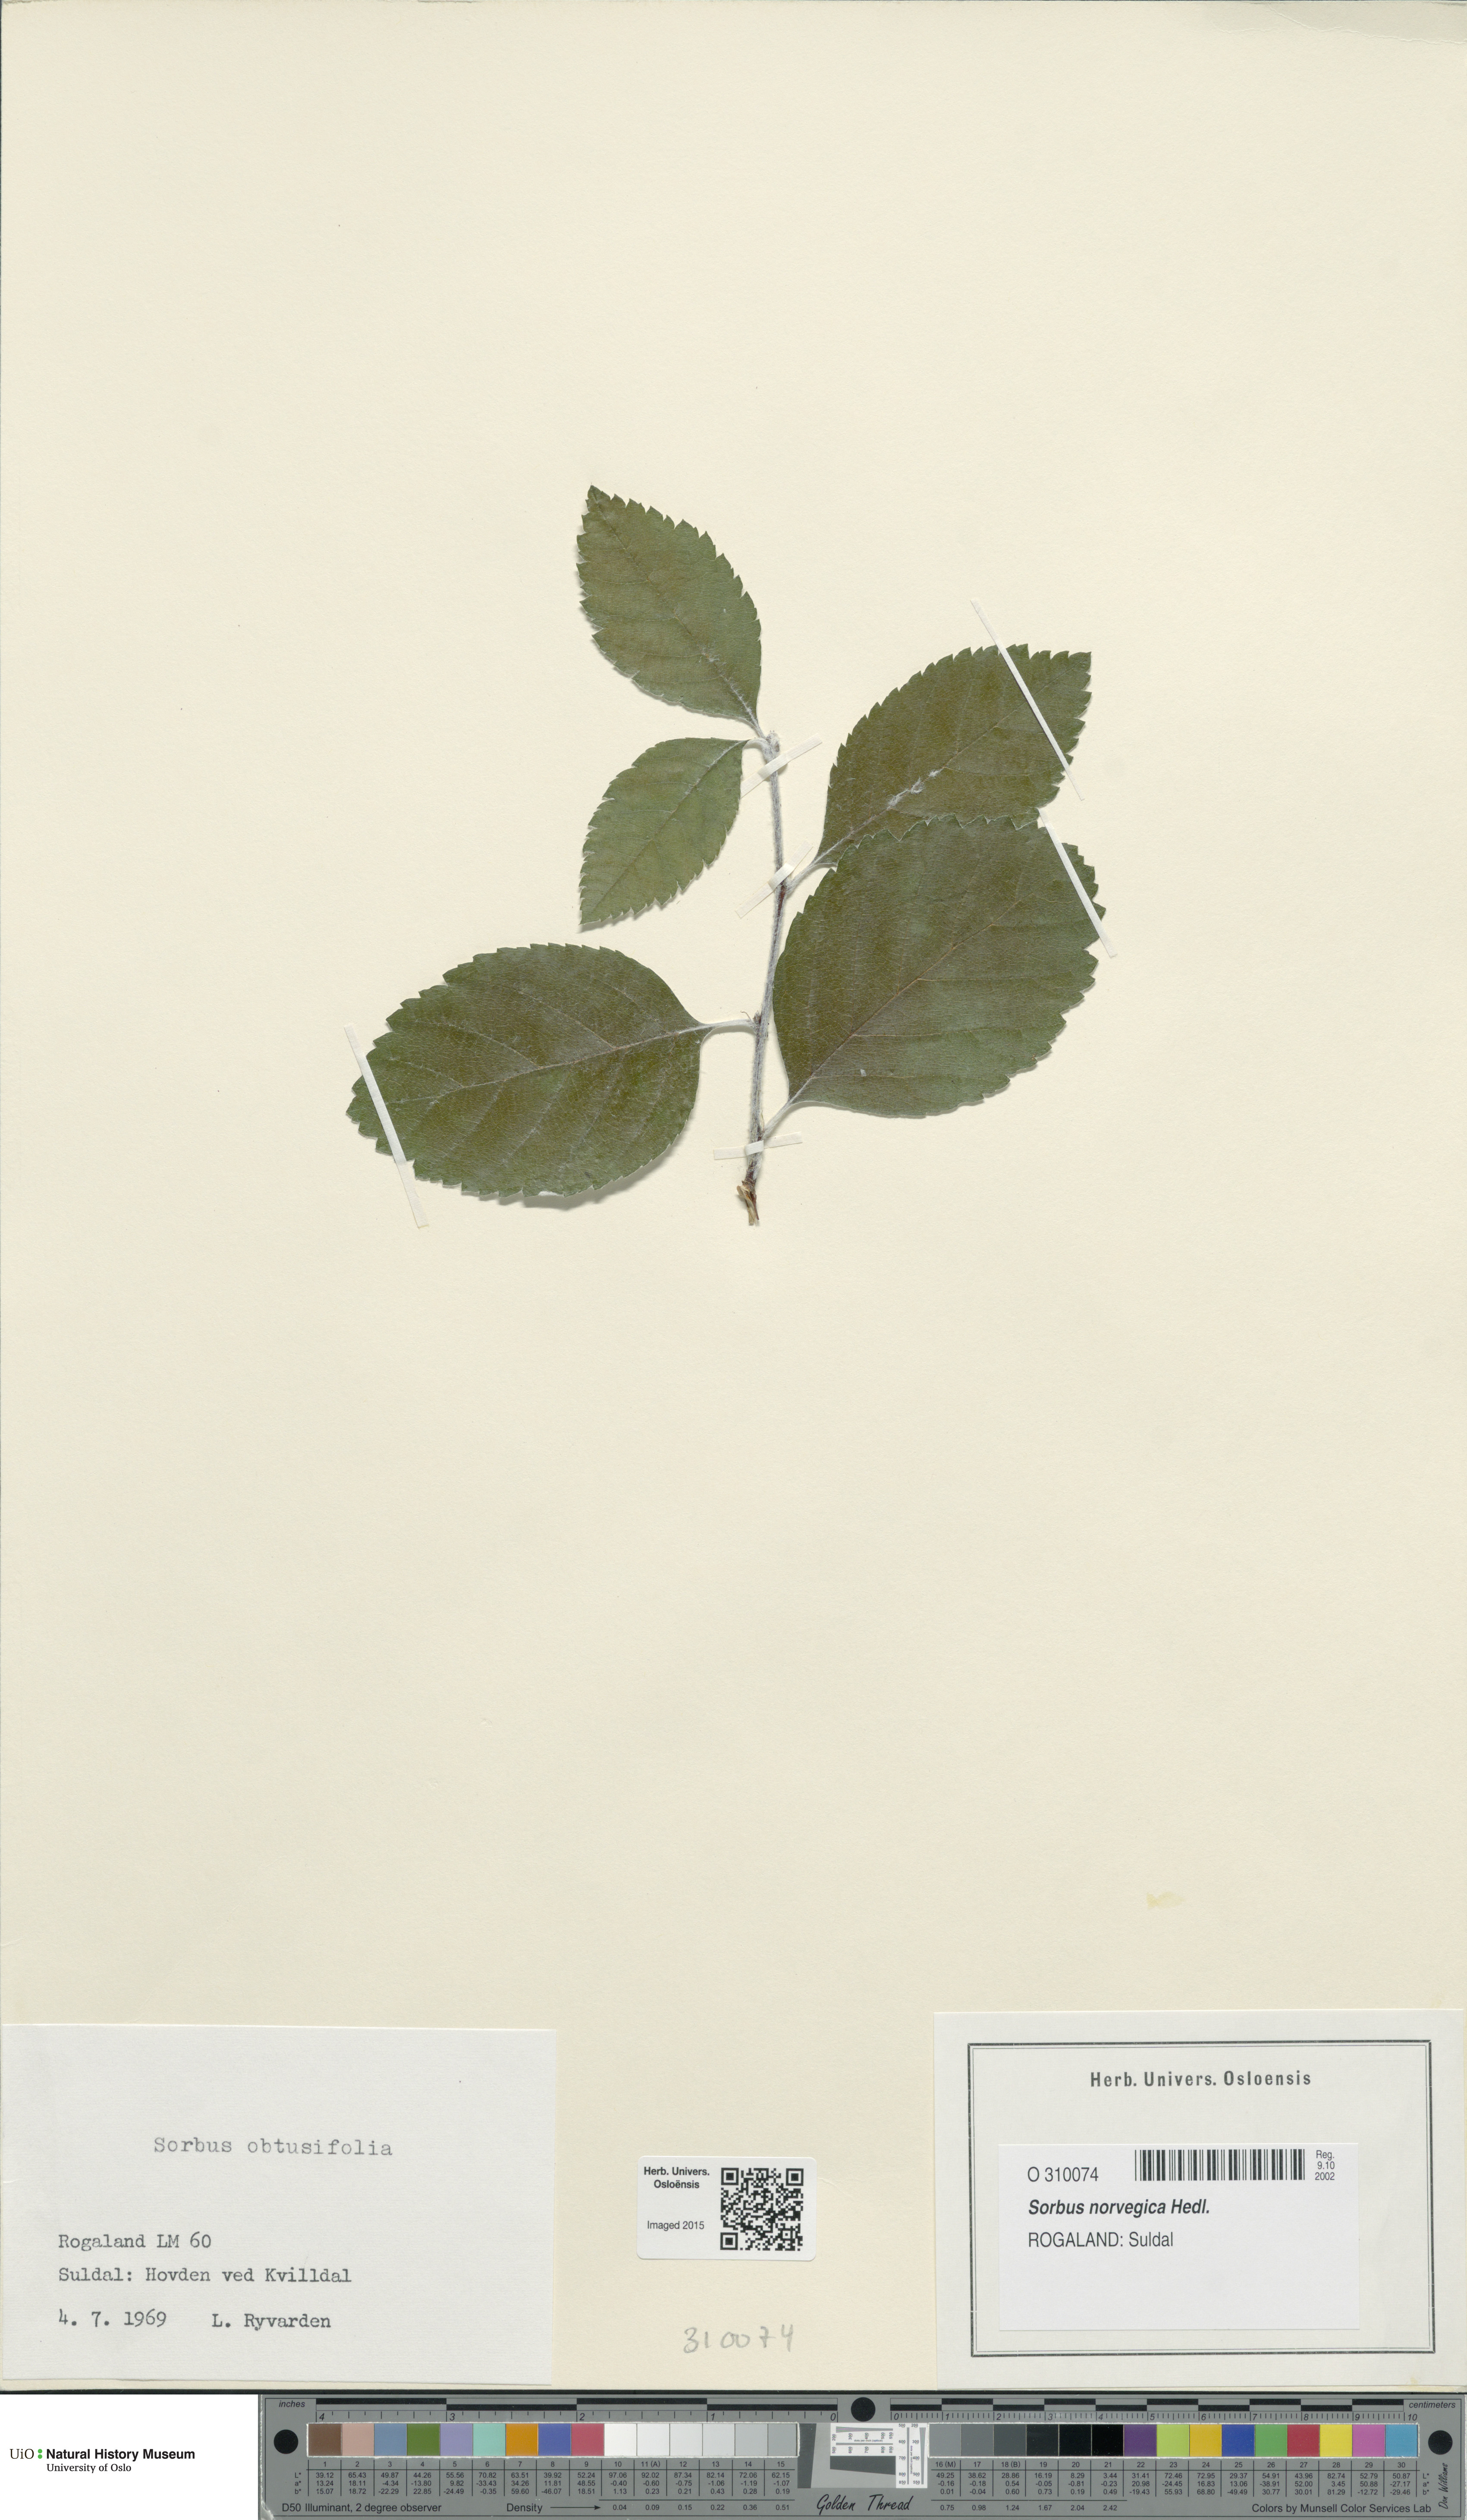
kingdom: Plantae
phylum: Tracheophyta
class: Magnoliopsida
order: Rosales
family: Rosaceae
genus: Aria
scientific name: Aria obtusifolia
